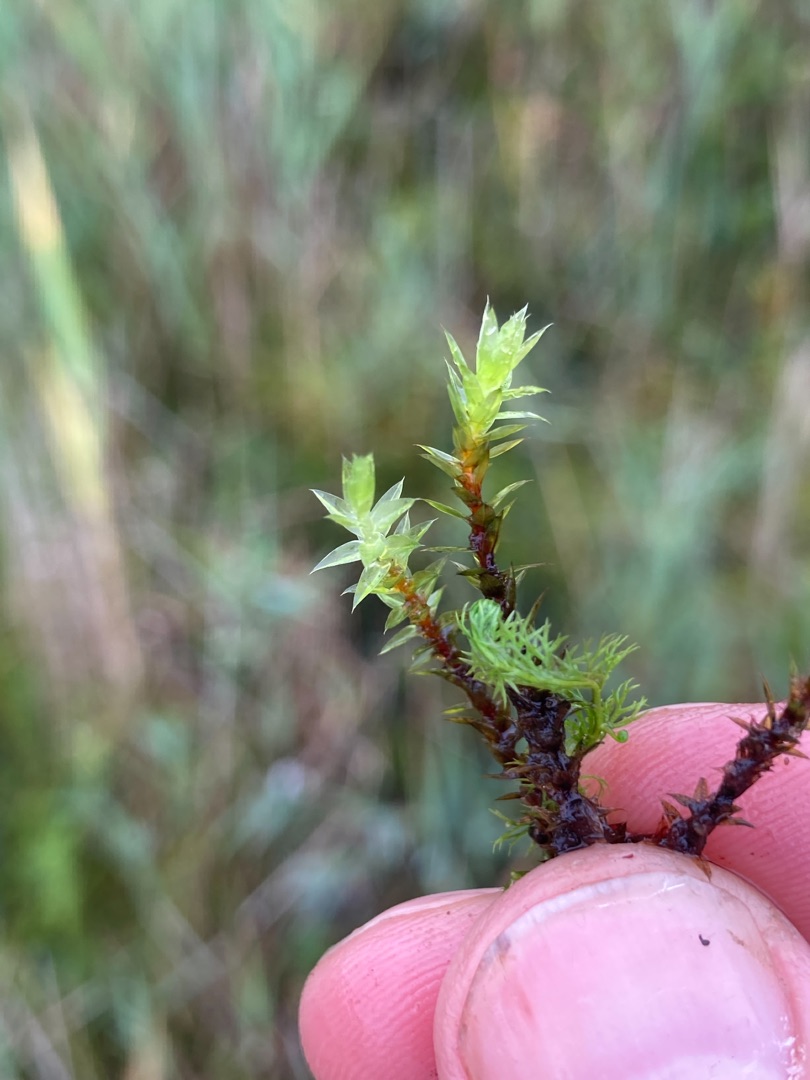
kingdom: Plantae
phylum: Bryophyta
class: Bryopsida
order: Bryales
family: Bryaceae
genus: Ptychostomum
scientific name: Ptychostomum pseudotriquetrum
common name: Nedløbende bryum
